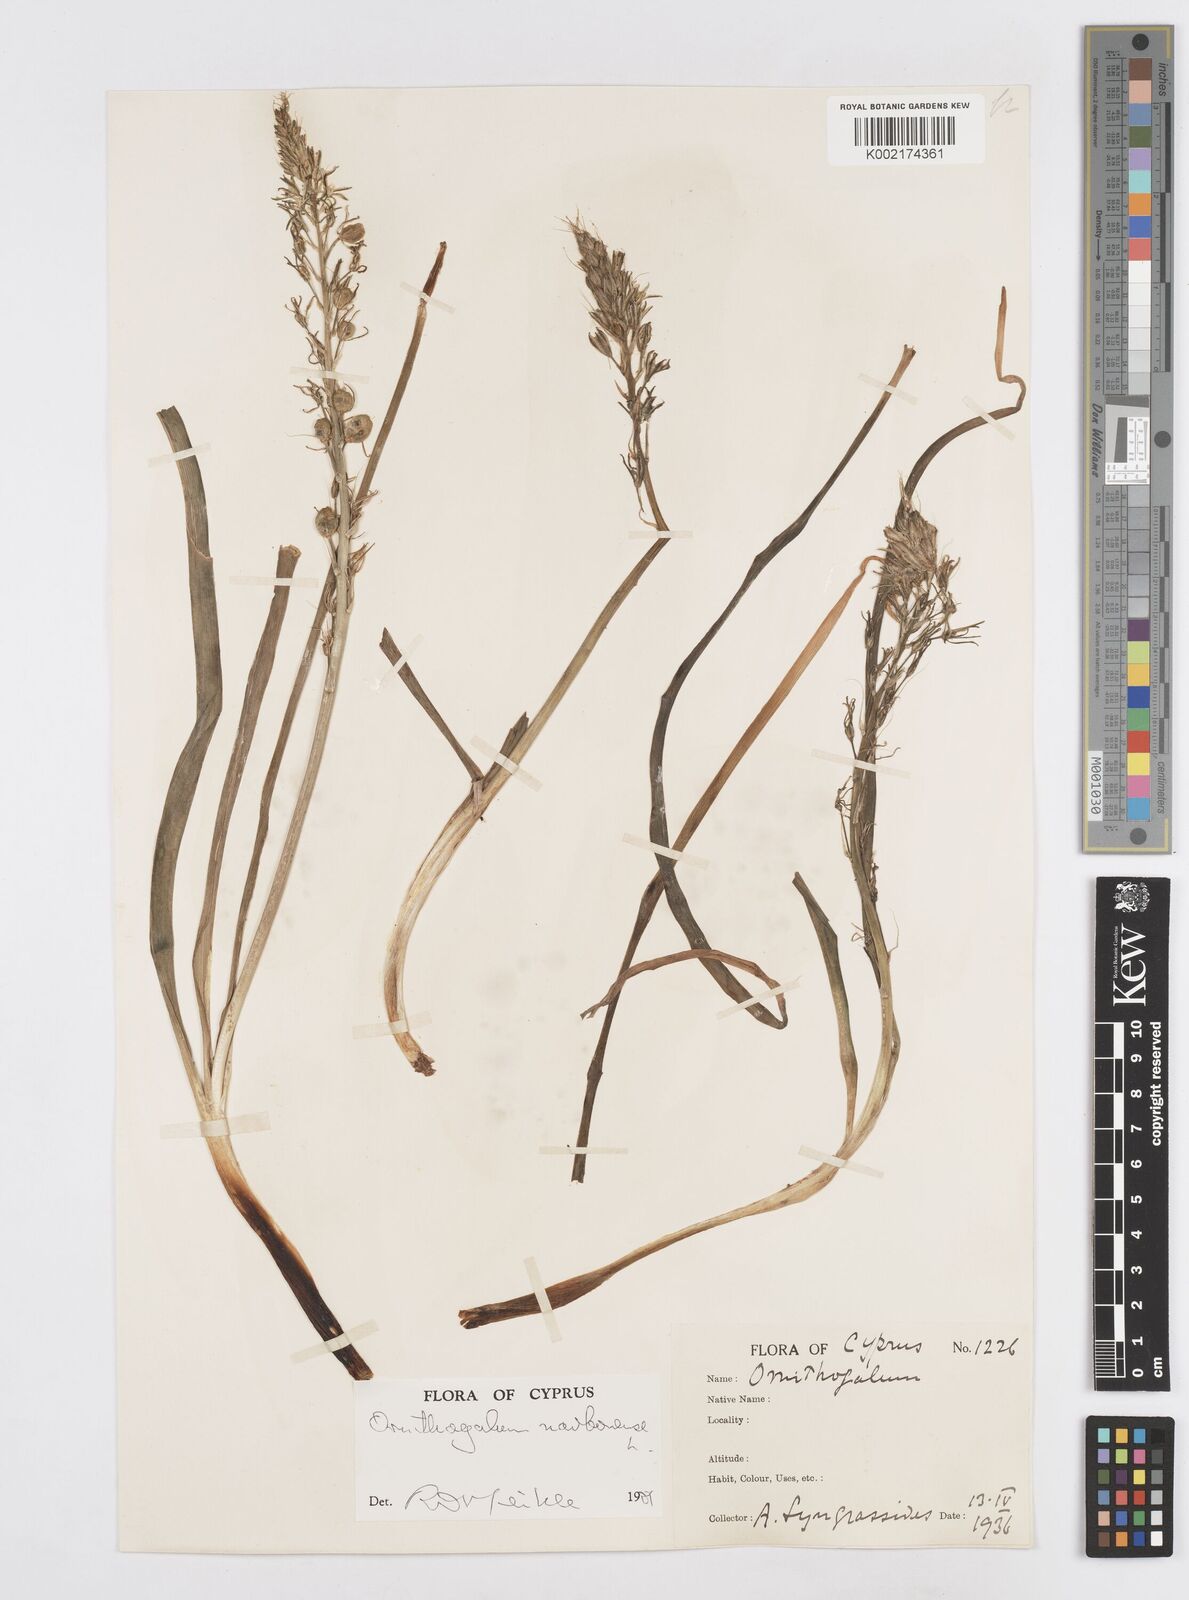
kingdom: Plantae
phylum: Tracheophyta
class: Liliopsida
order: Asparagales
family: Asparagaceae
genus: Ornithogalum
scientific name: Ornithogalum narbonense
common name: Bath-asparagus
